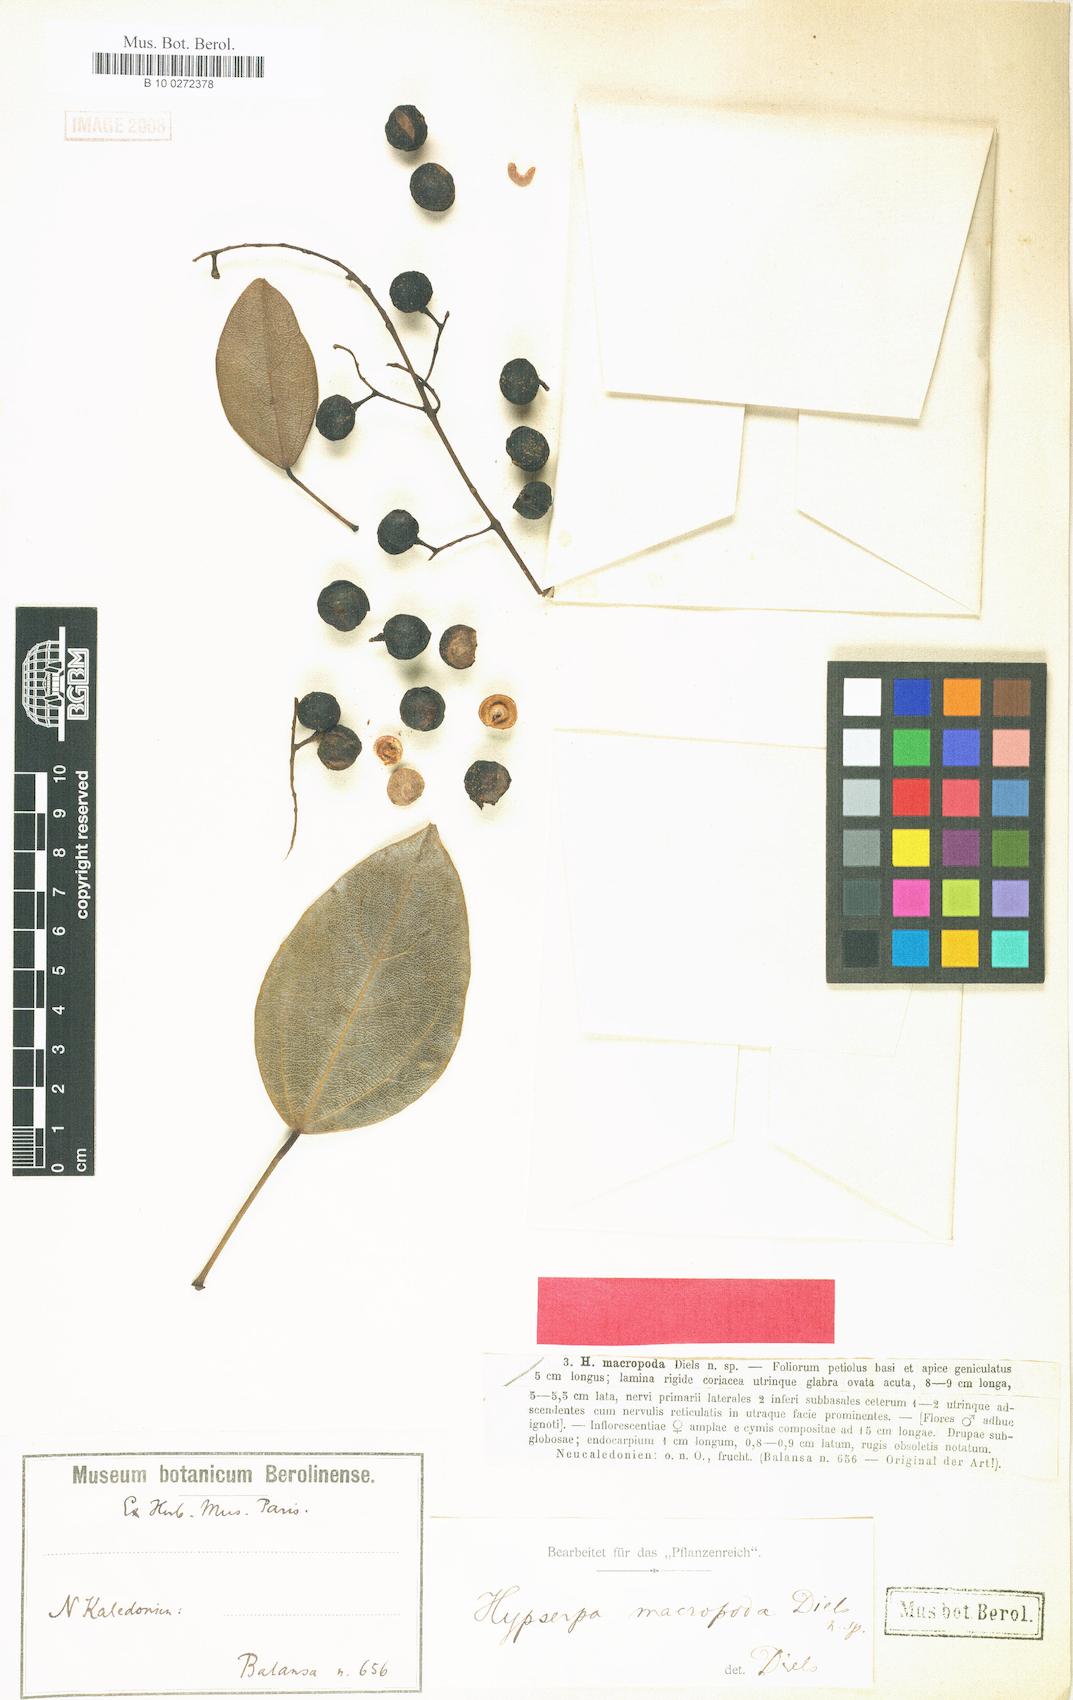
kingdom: Plantae
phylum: Tracheophyta
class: Magnoliopsida
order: Ranunculales
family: Menispermaceae
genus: Hypserpa
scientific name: Hypserpa vieillardii
